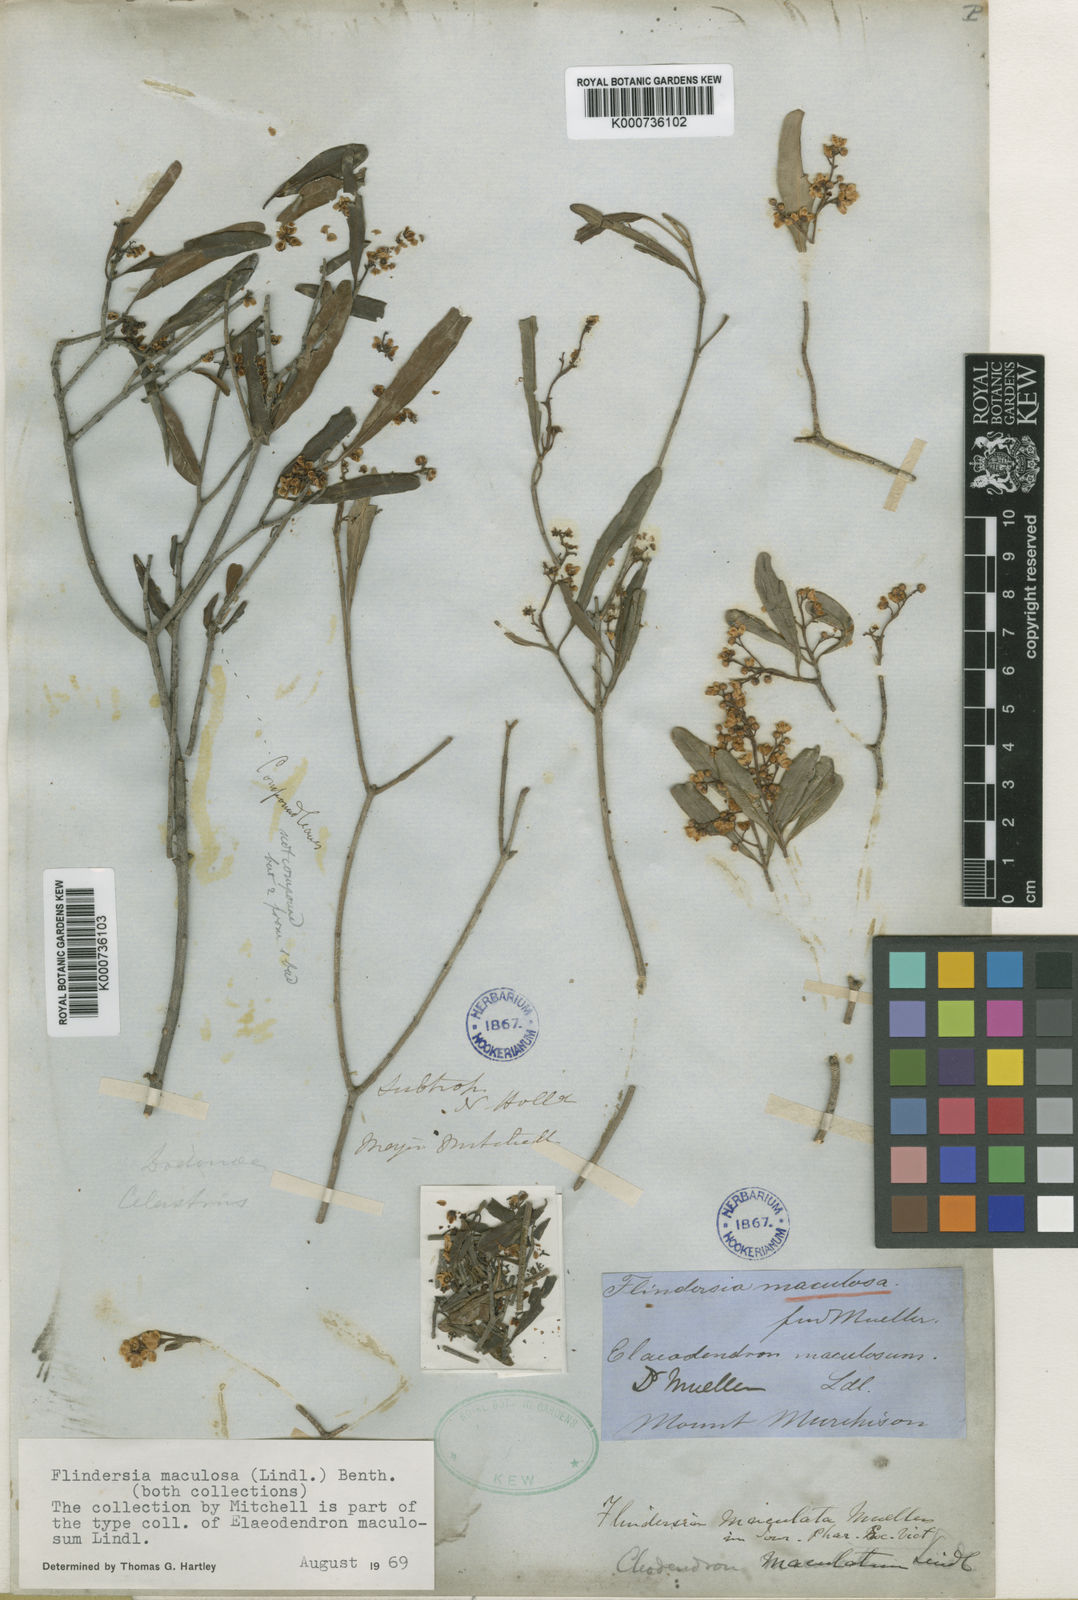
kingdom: Plantae
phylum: Tracheophyta
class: Magnoliopsida
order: Sapindales
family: Rutaceae
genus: Flindersia
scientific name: Flindersia maculosa
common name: Leopardtree
